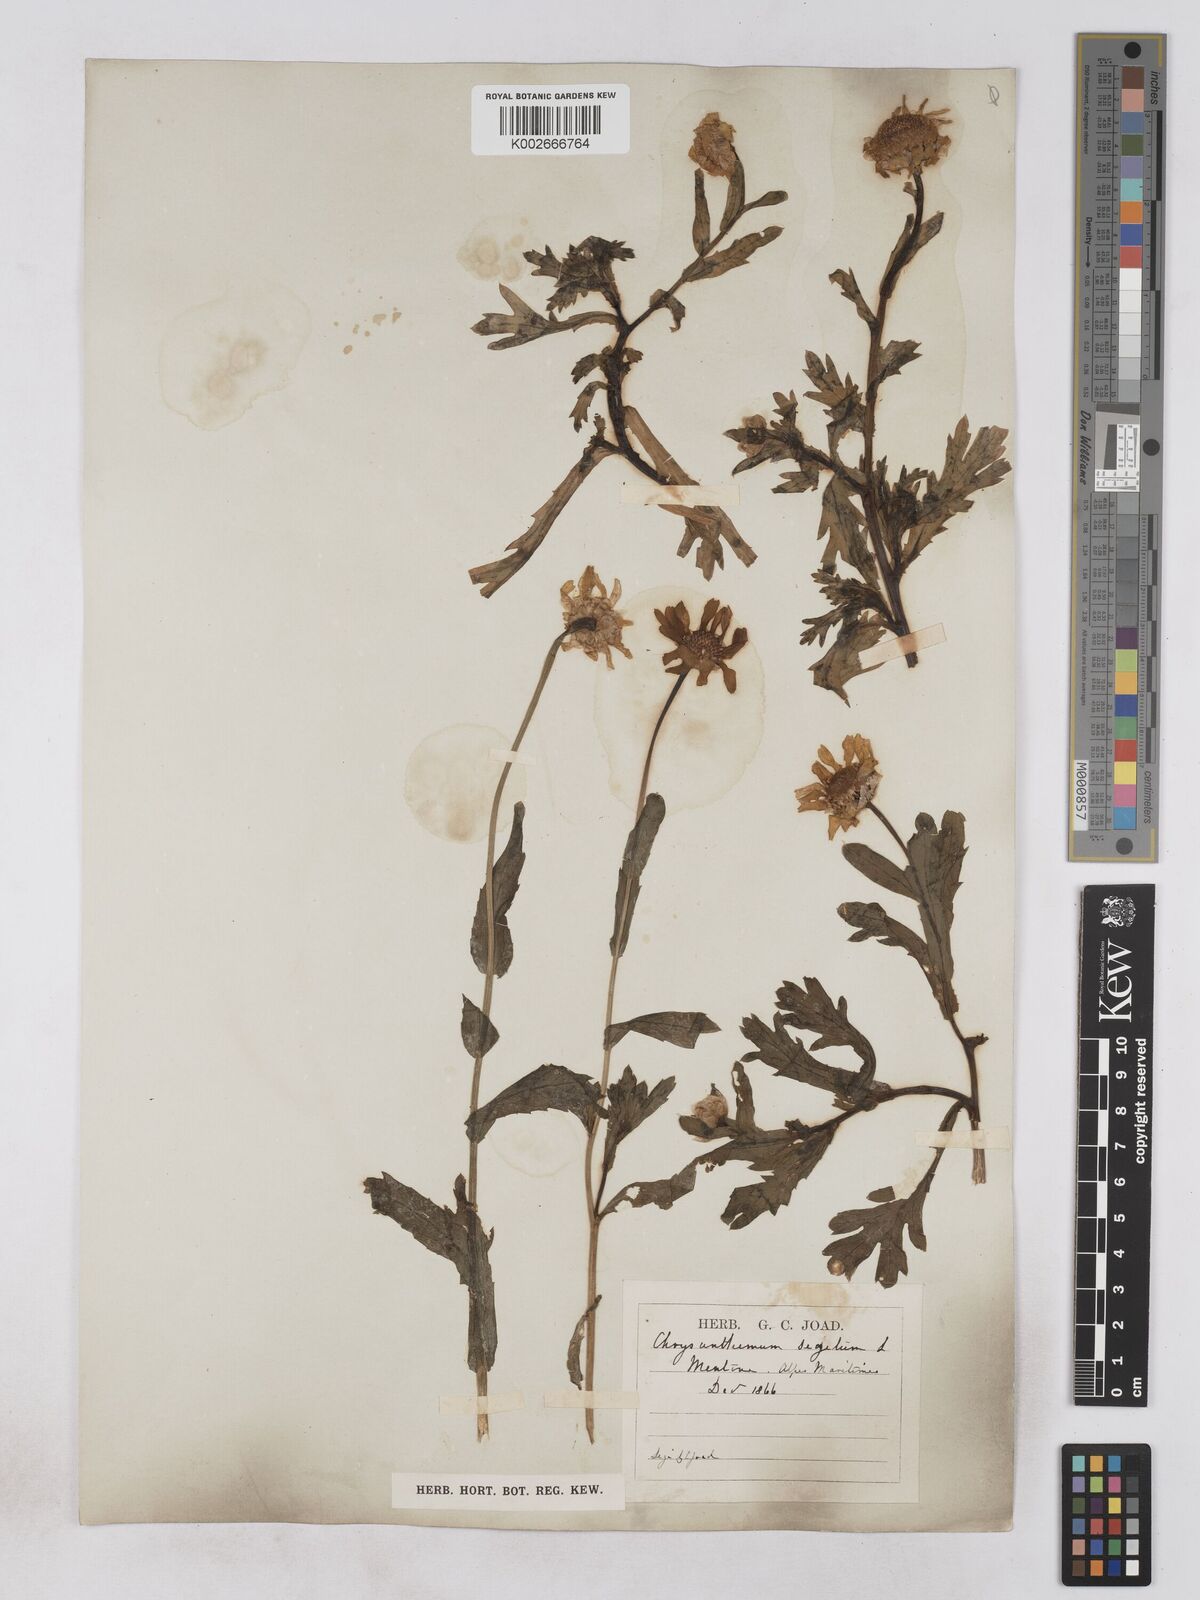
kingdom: Plantae
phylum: Tracheophyta
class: Magnoliopsida
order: Asterales
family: Asteraceae
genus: Glebionis
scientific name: Glebionis segetum
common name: Corndaisy
